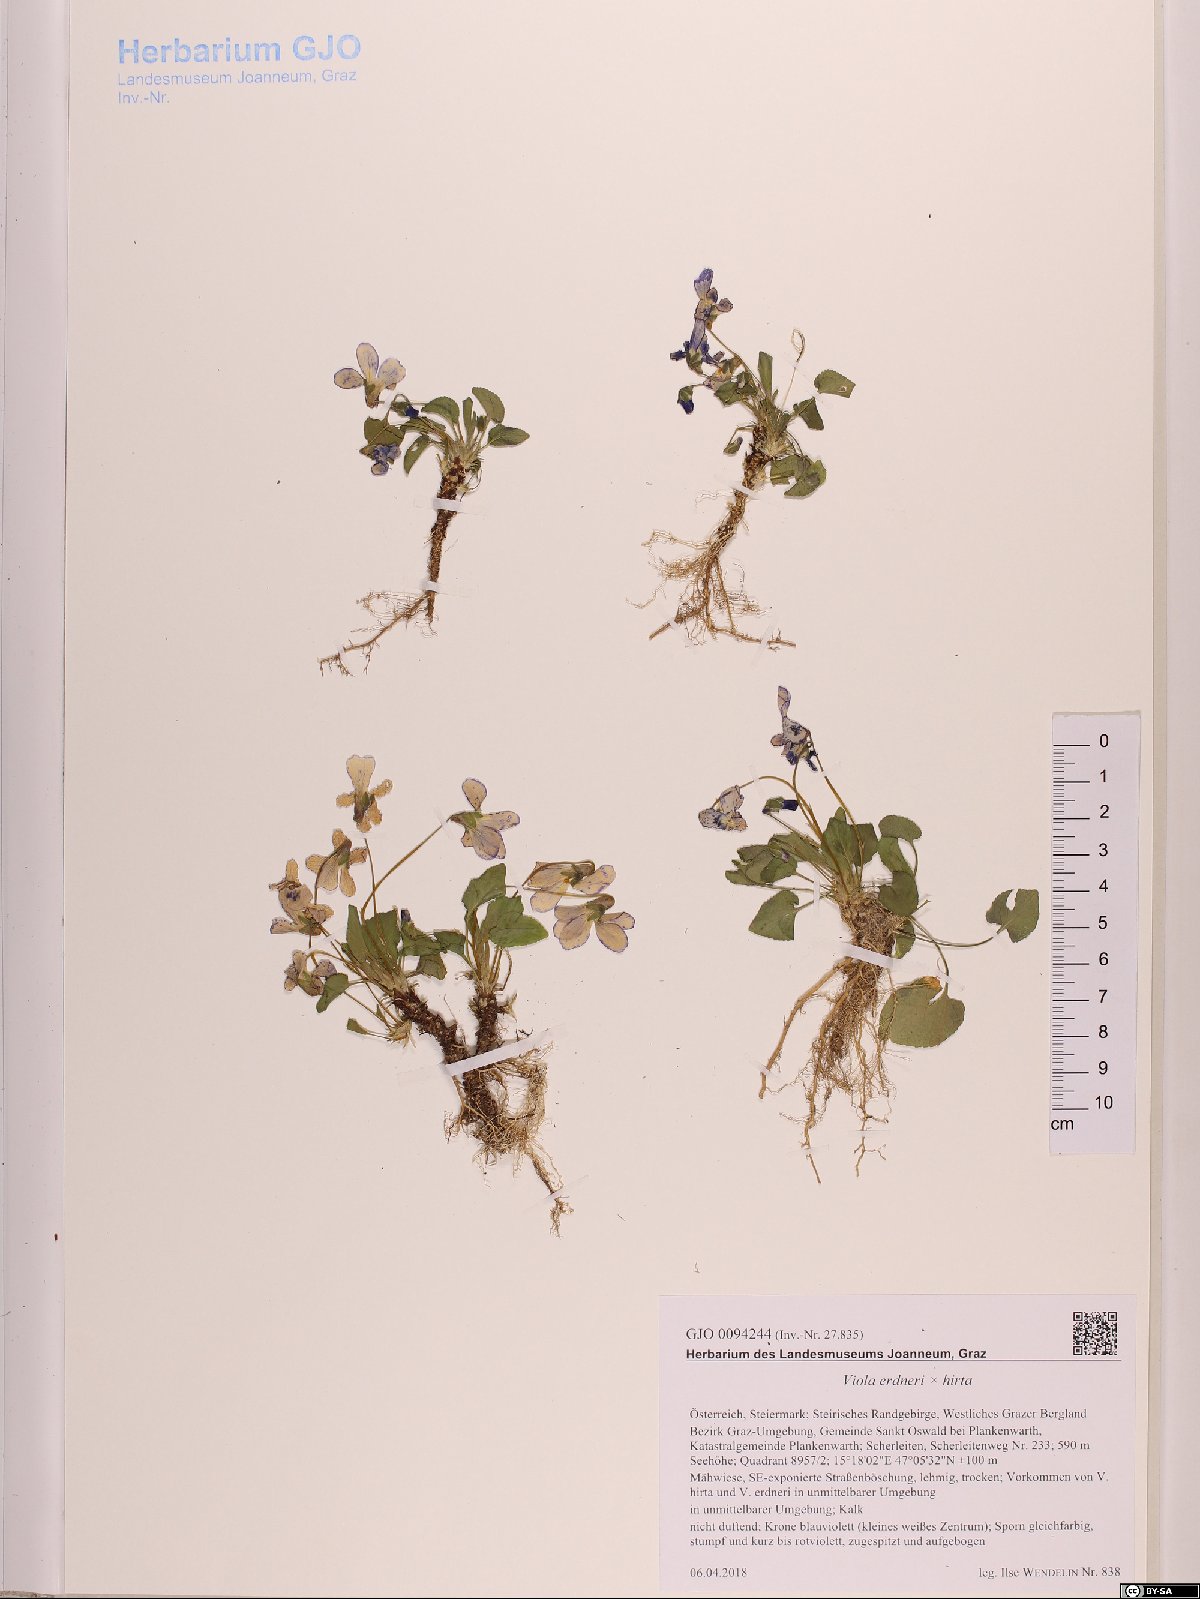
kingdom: Plantae
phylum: Tracheophyta
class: Magnoliopsida
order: Malpighiales
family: Violaceae
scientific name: Violaceae
